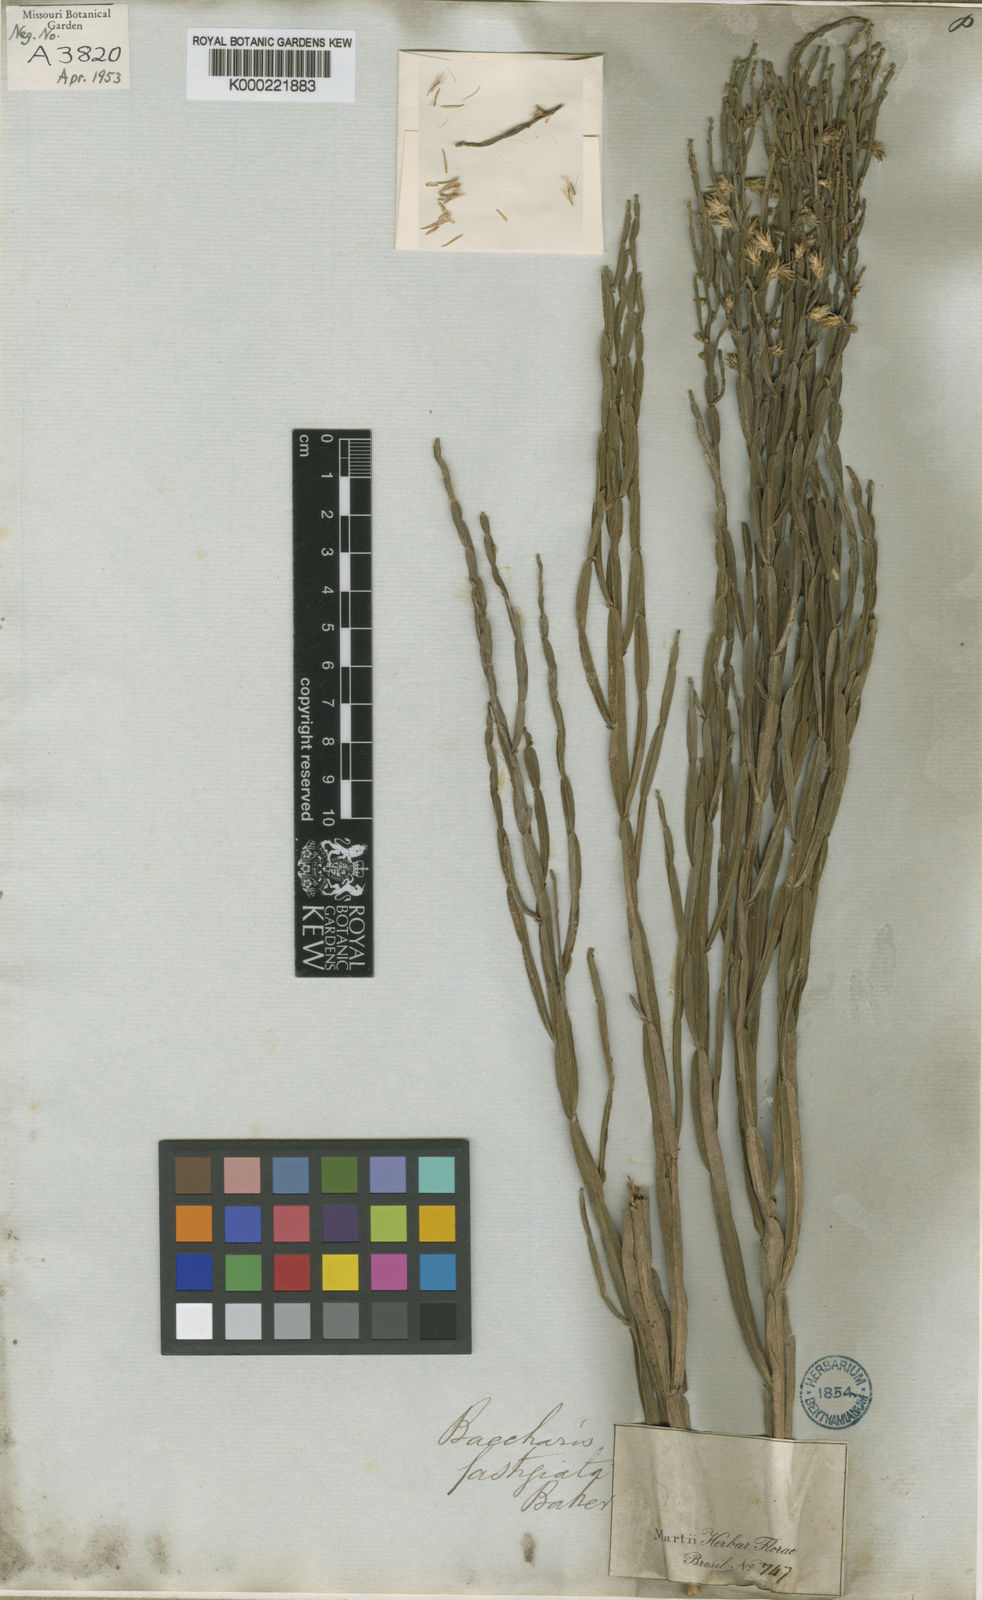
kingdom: Plantae
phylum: Tracheophyta
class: Magnoliopsida
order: Asterales
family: Asteraceae
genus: Baccharis
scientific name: Baccharis
